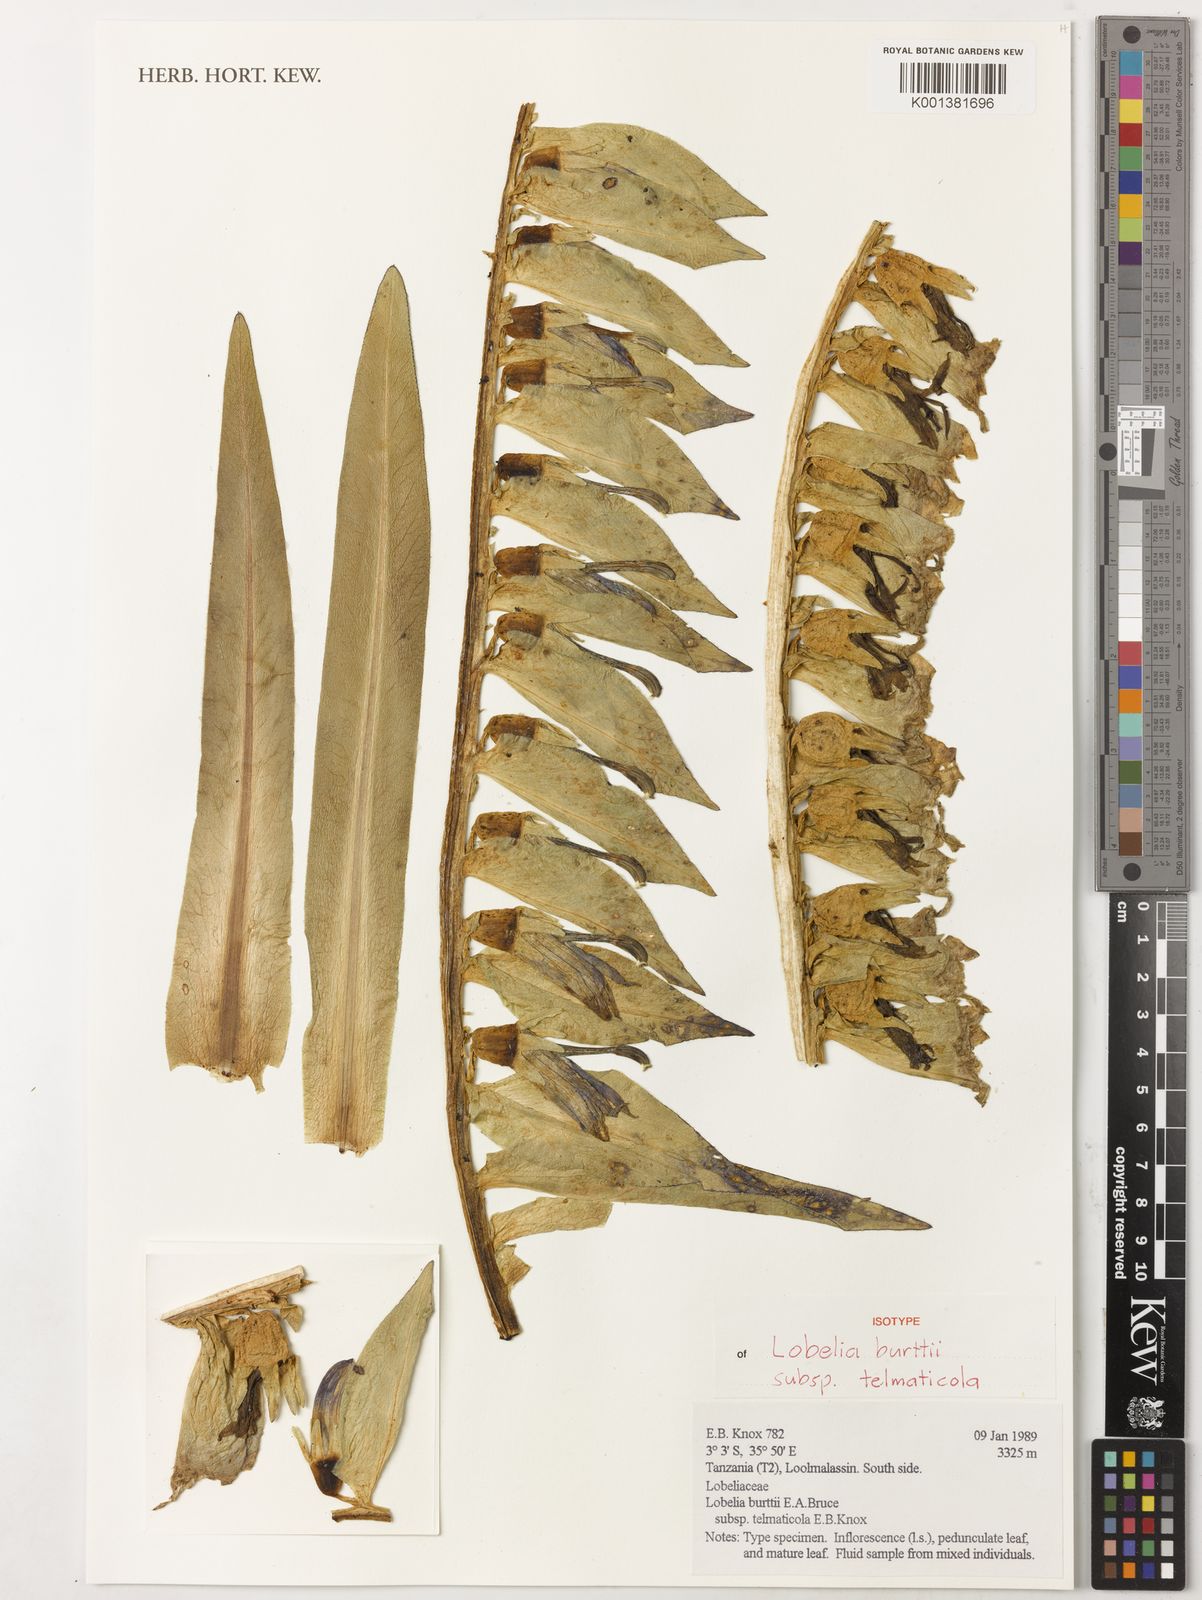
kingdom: Plantae
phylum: Tracheophyta
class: Magnoliopsida
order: Asterales
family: Campanulaceae
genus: Lobelia
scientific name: Lobelia burttii
